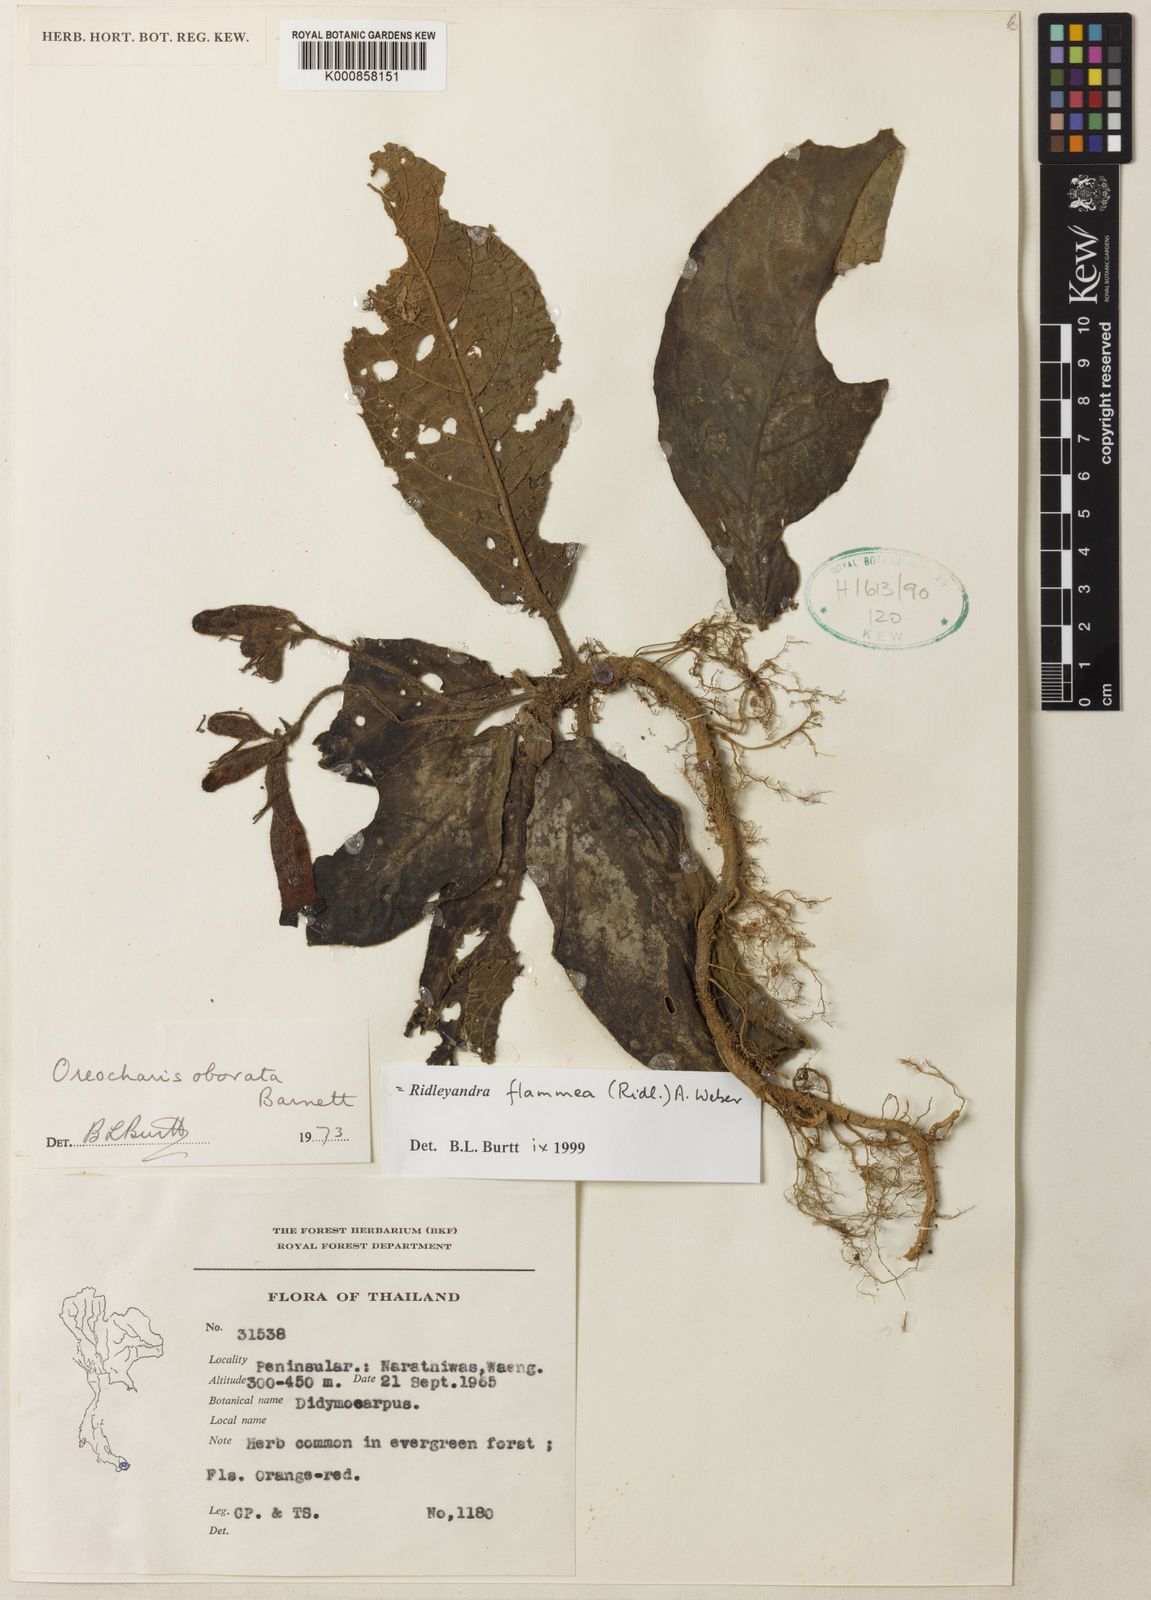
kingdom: Plantae
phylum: Tracheophyta
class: Magnoliopsida
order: Lamiales
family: Gesneriaceae
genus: Ridleyandra
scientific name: Ridleyandra flammea
